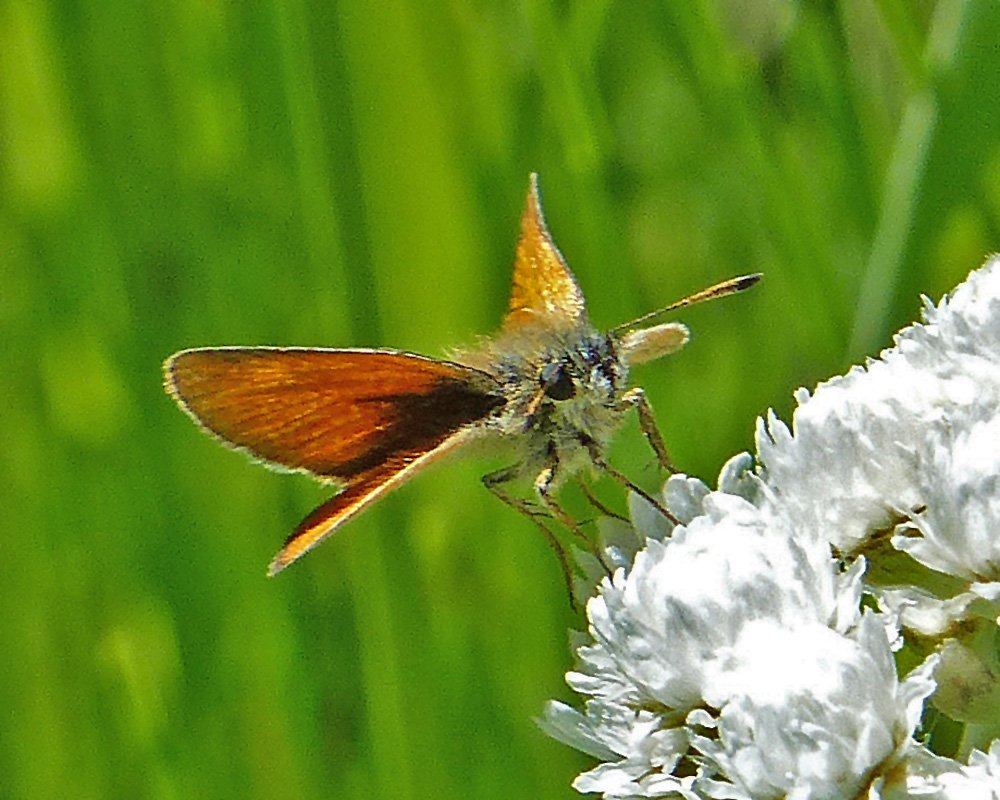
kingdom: Animalia
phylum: Arthropoda
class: Insecta
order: Lepidoptera
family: Hesperiidae
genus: Thymelicus
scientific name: Thymelicus lineola
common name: European Skipper
